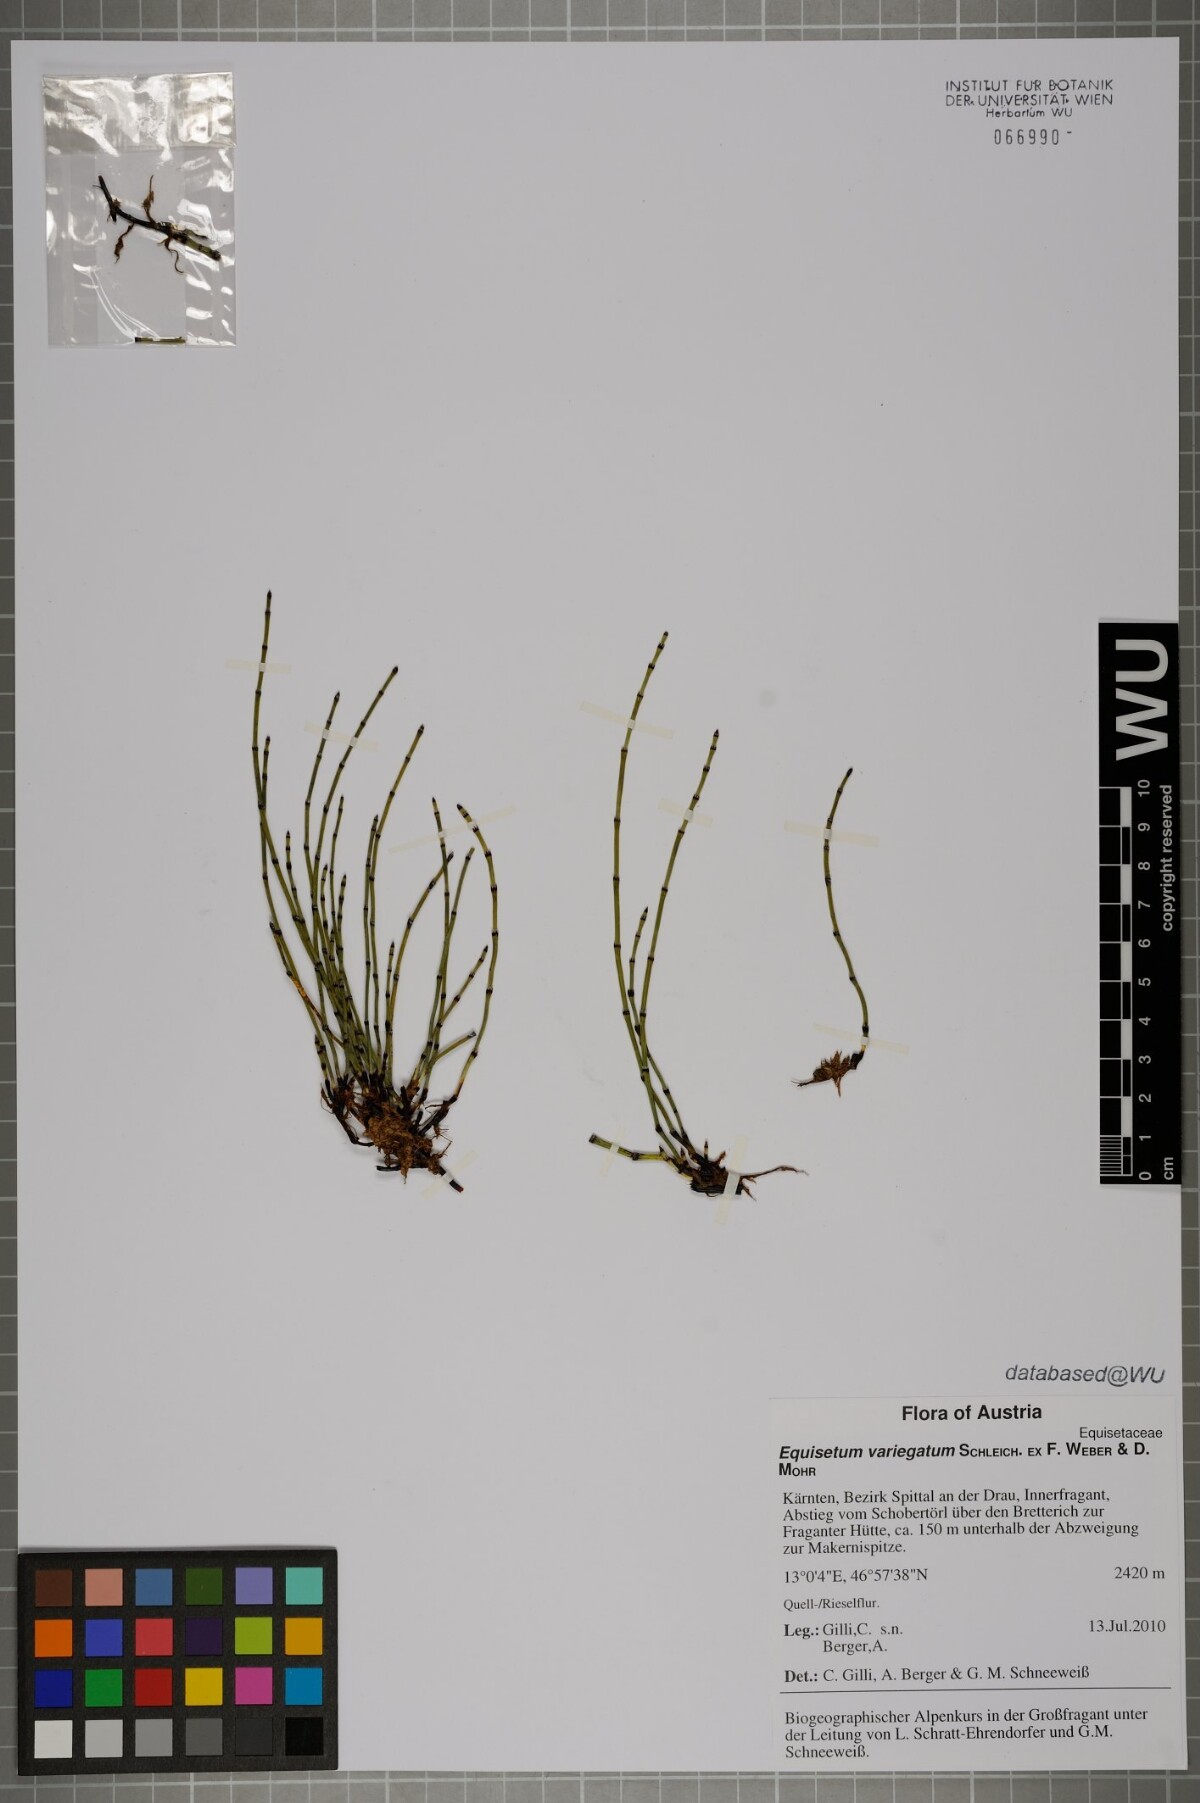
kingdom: Plantae
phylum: Tracheophyta
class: Polypodiopsida
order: Equisetales
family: Equisetaceae
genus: Equisetum
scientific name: Equisetum variegatum
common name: Variegated horsetail
